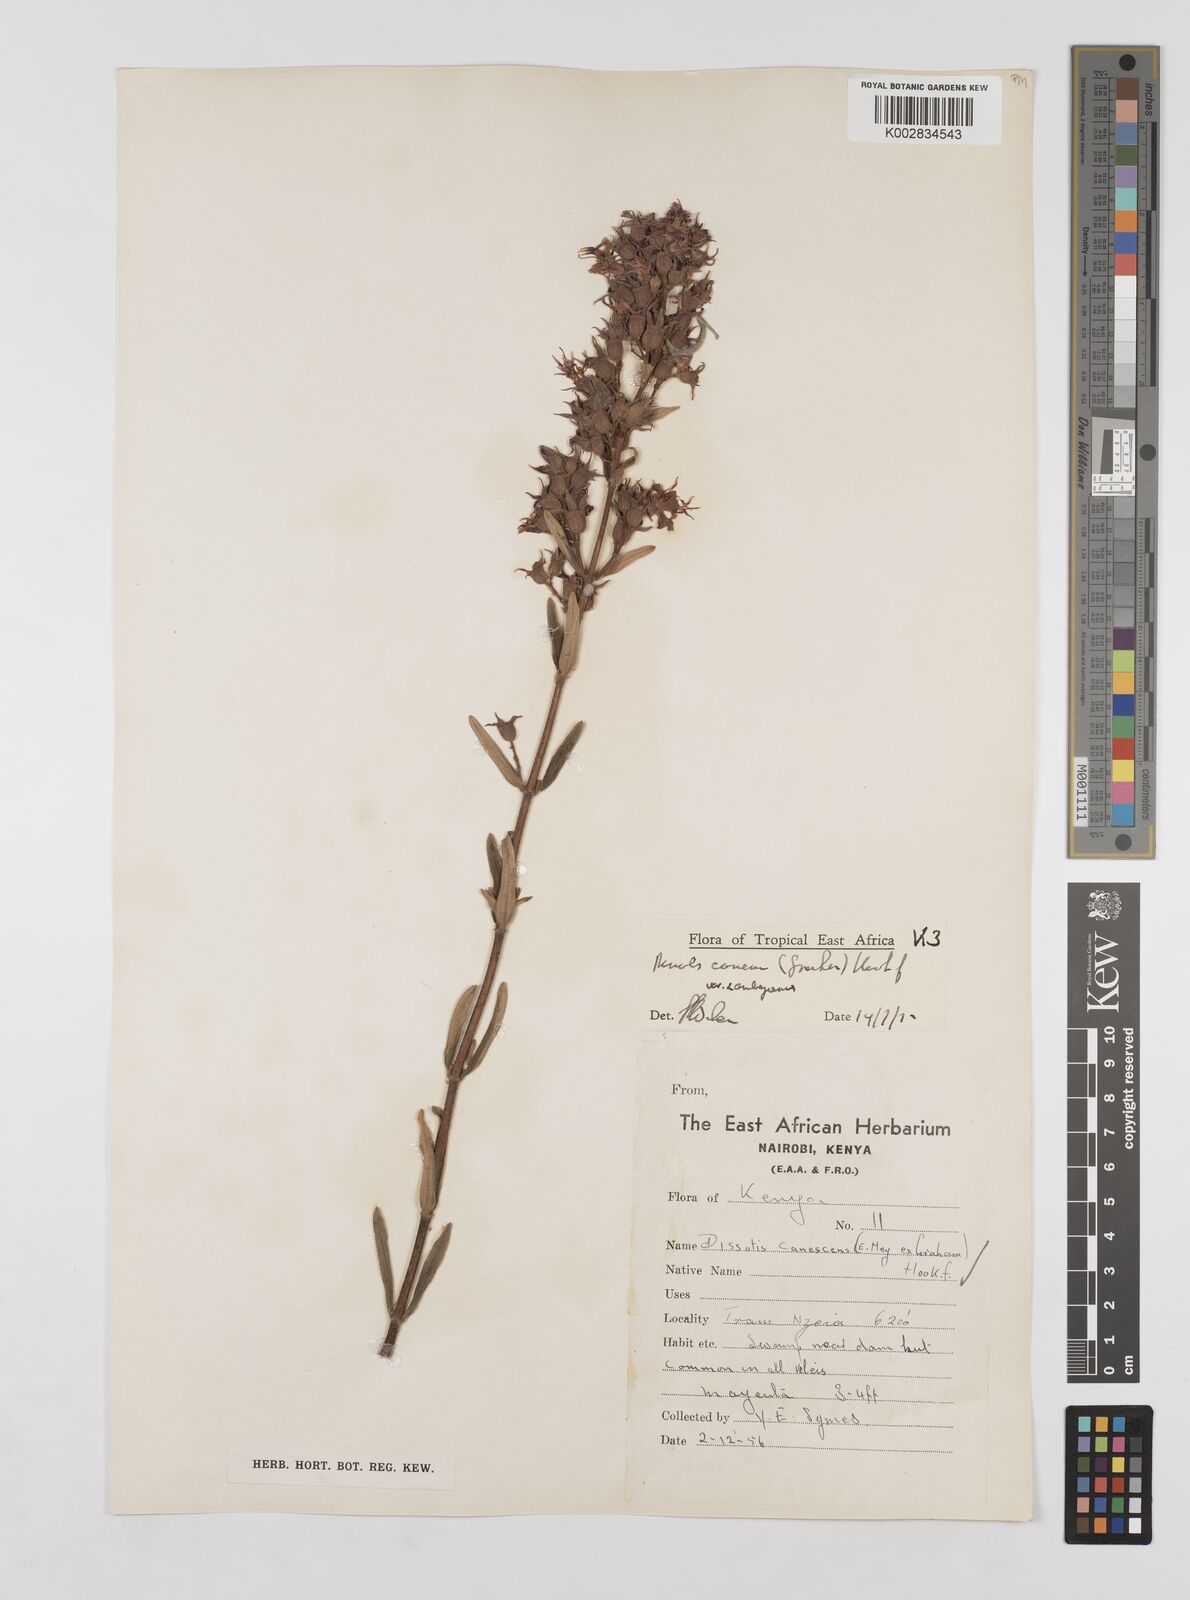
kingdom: Plantae
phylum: Tracheophyta
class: Magnoliopsida
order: Myrtales
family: Melastomataceae
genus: Argyrella
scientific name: Argyrella canescens
